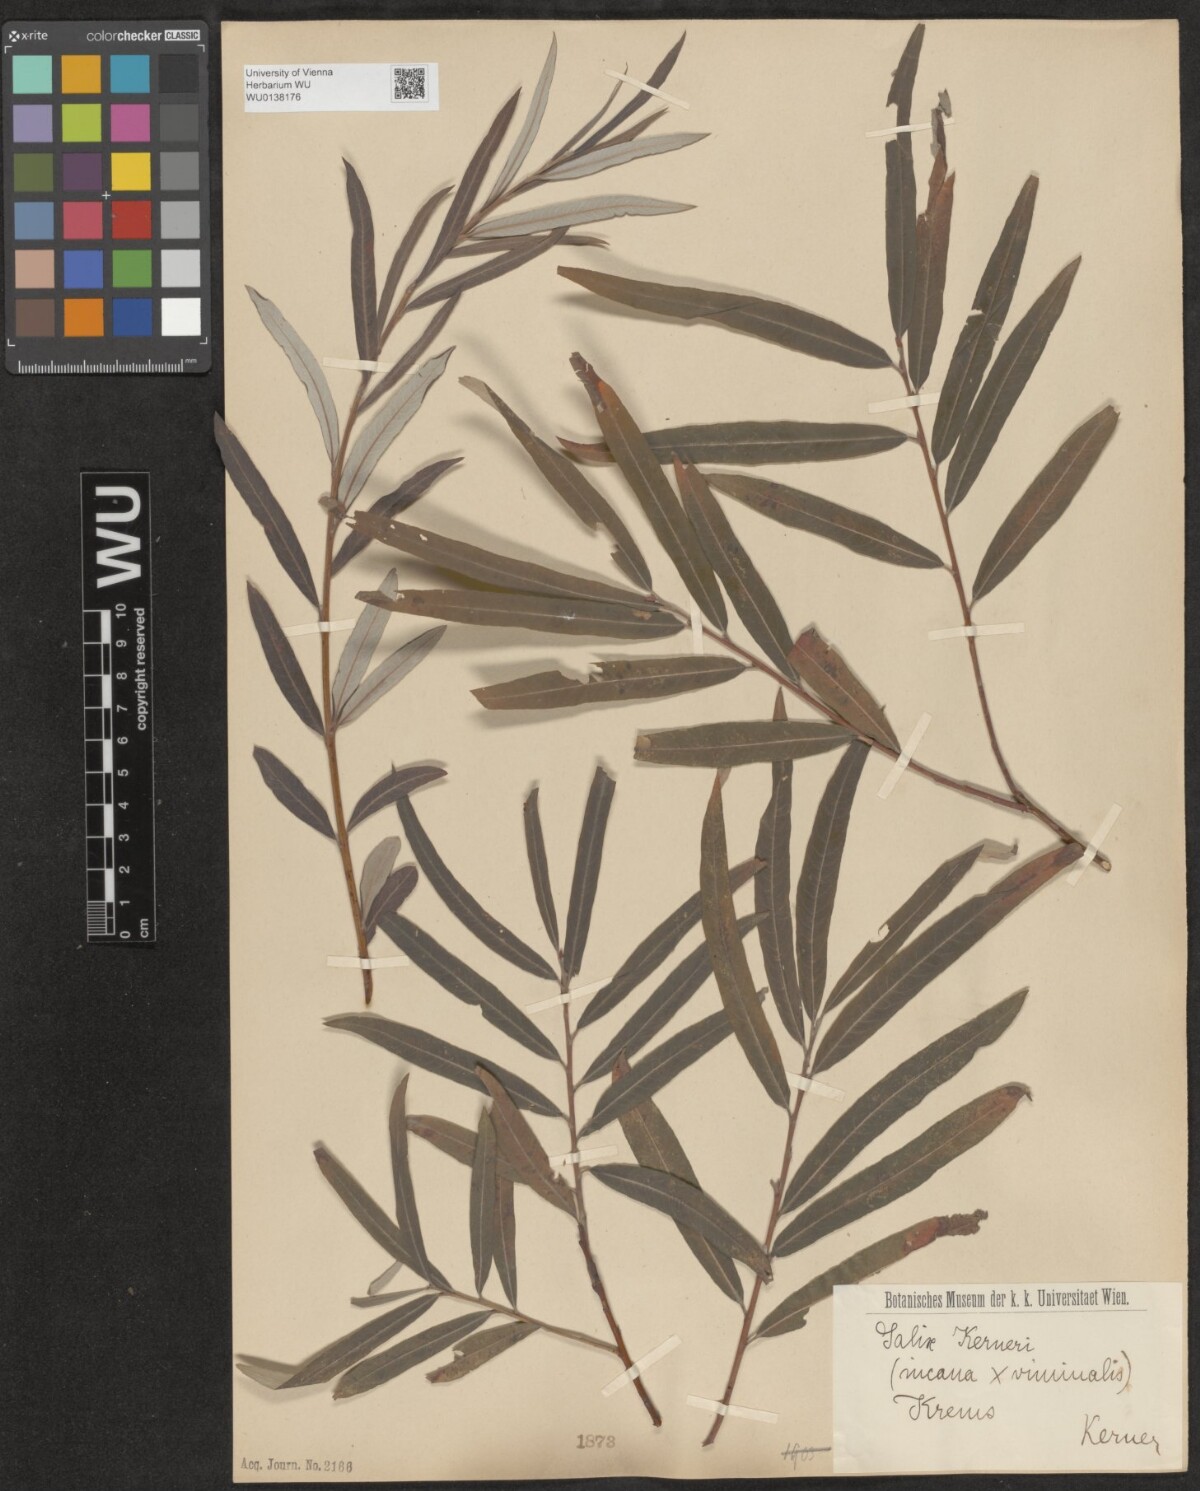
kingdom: Plantae
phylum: Tracheophyta
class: Magnoliopsida
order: Malpighiales
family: Salicaceae
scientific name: Salicaceae
